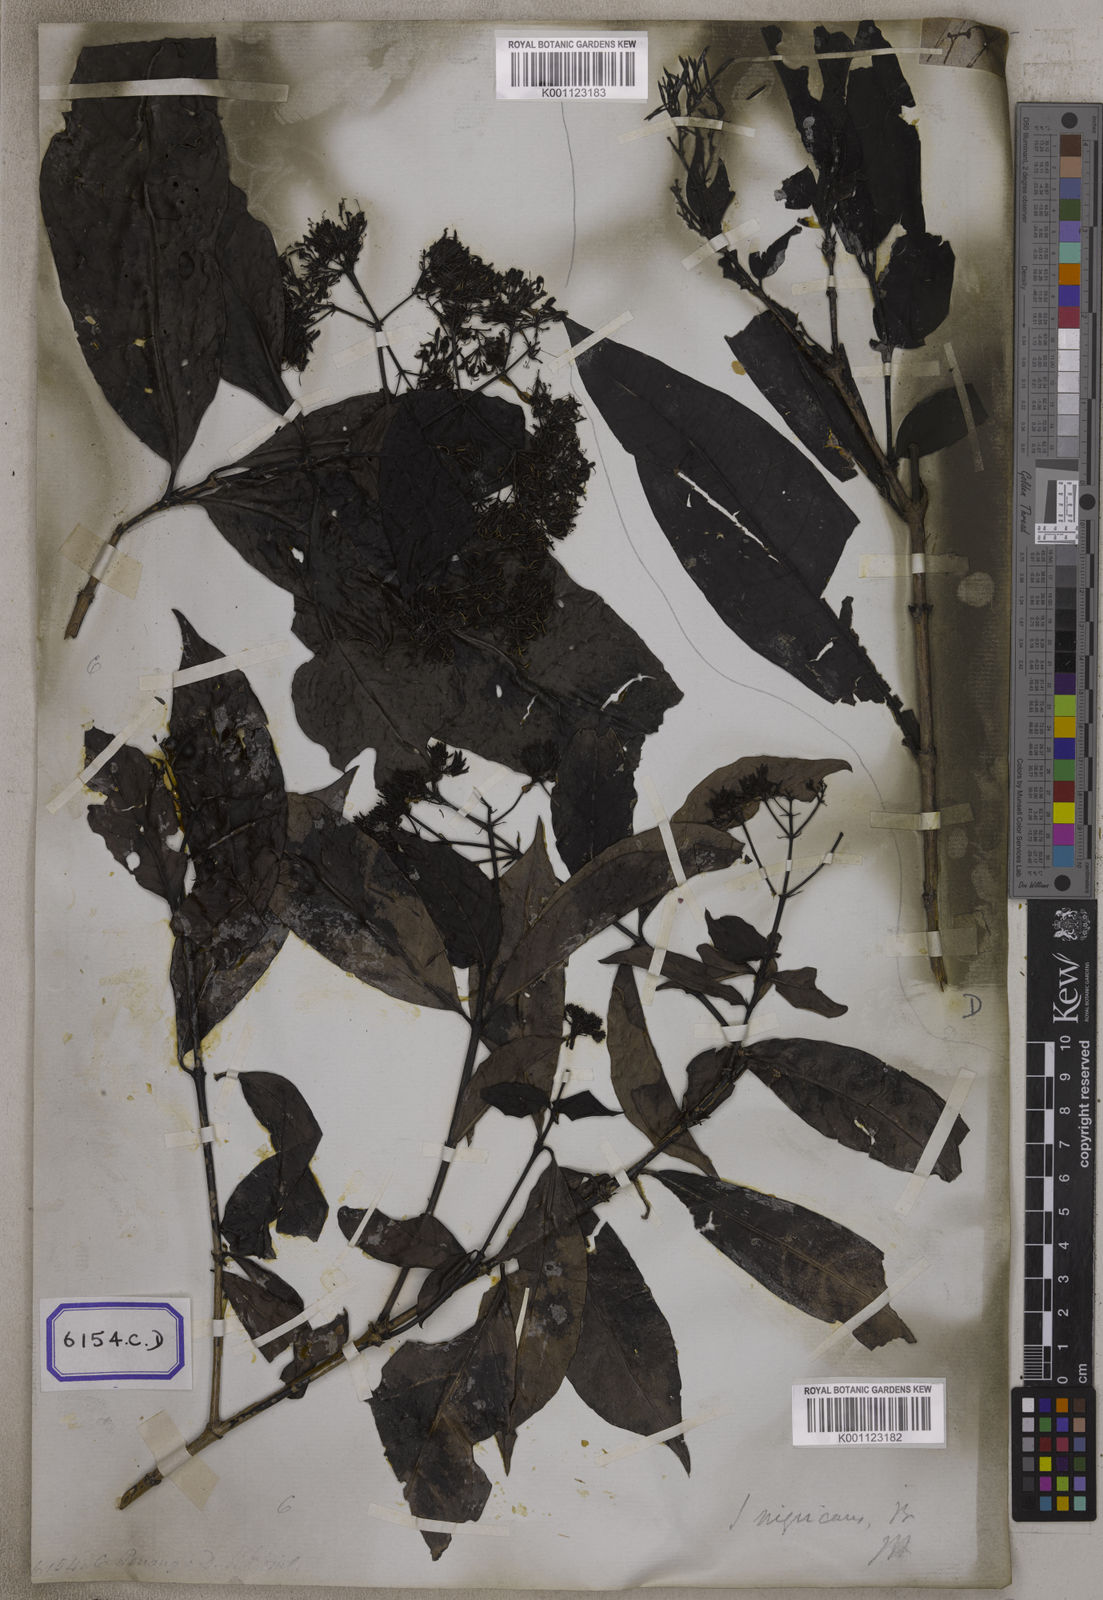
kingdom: Plantae
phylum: Tracheophyta
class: Magnoliopsida
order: Gentianales
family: Rubiaceae
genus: Ixora
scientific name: Ixora
